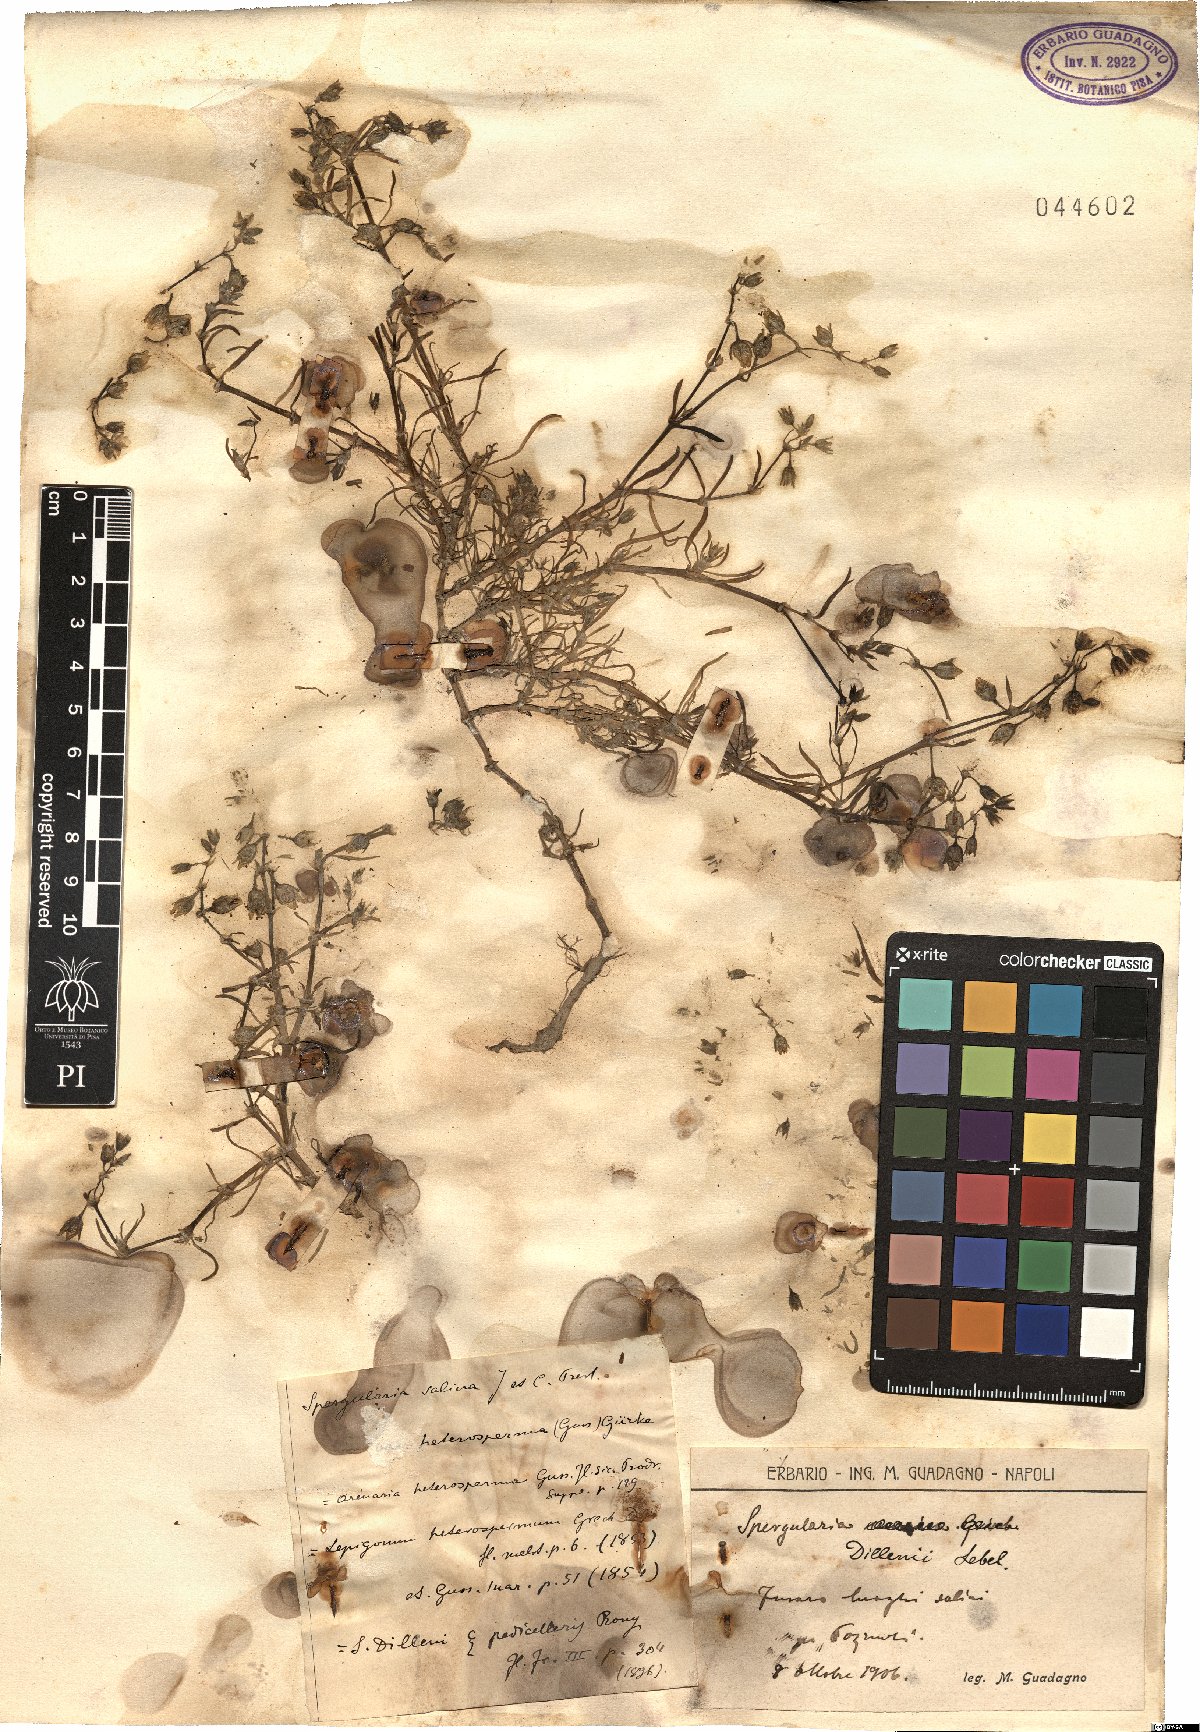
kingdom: Plantae
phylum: Tracheophyta
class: Magnoliopsida
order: Caryophyllales
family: Caryophyllaceae
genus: Spergularia
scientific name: Spergularia marina
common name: Lesser sea-spurrey
